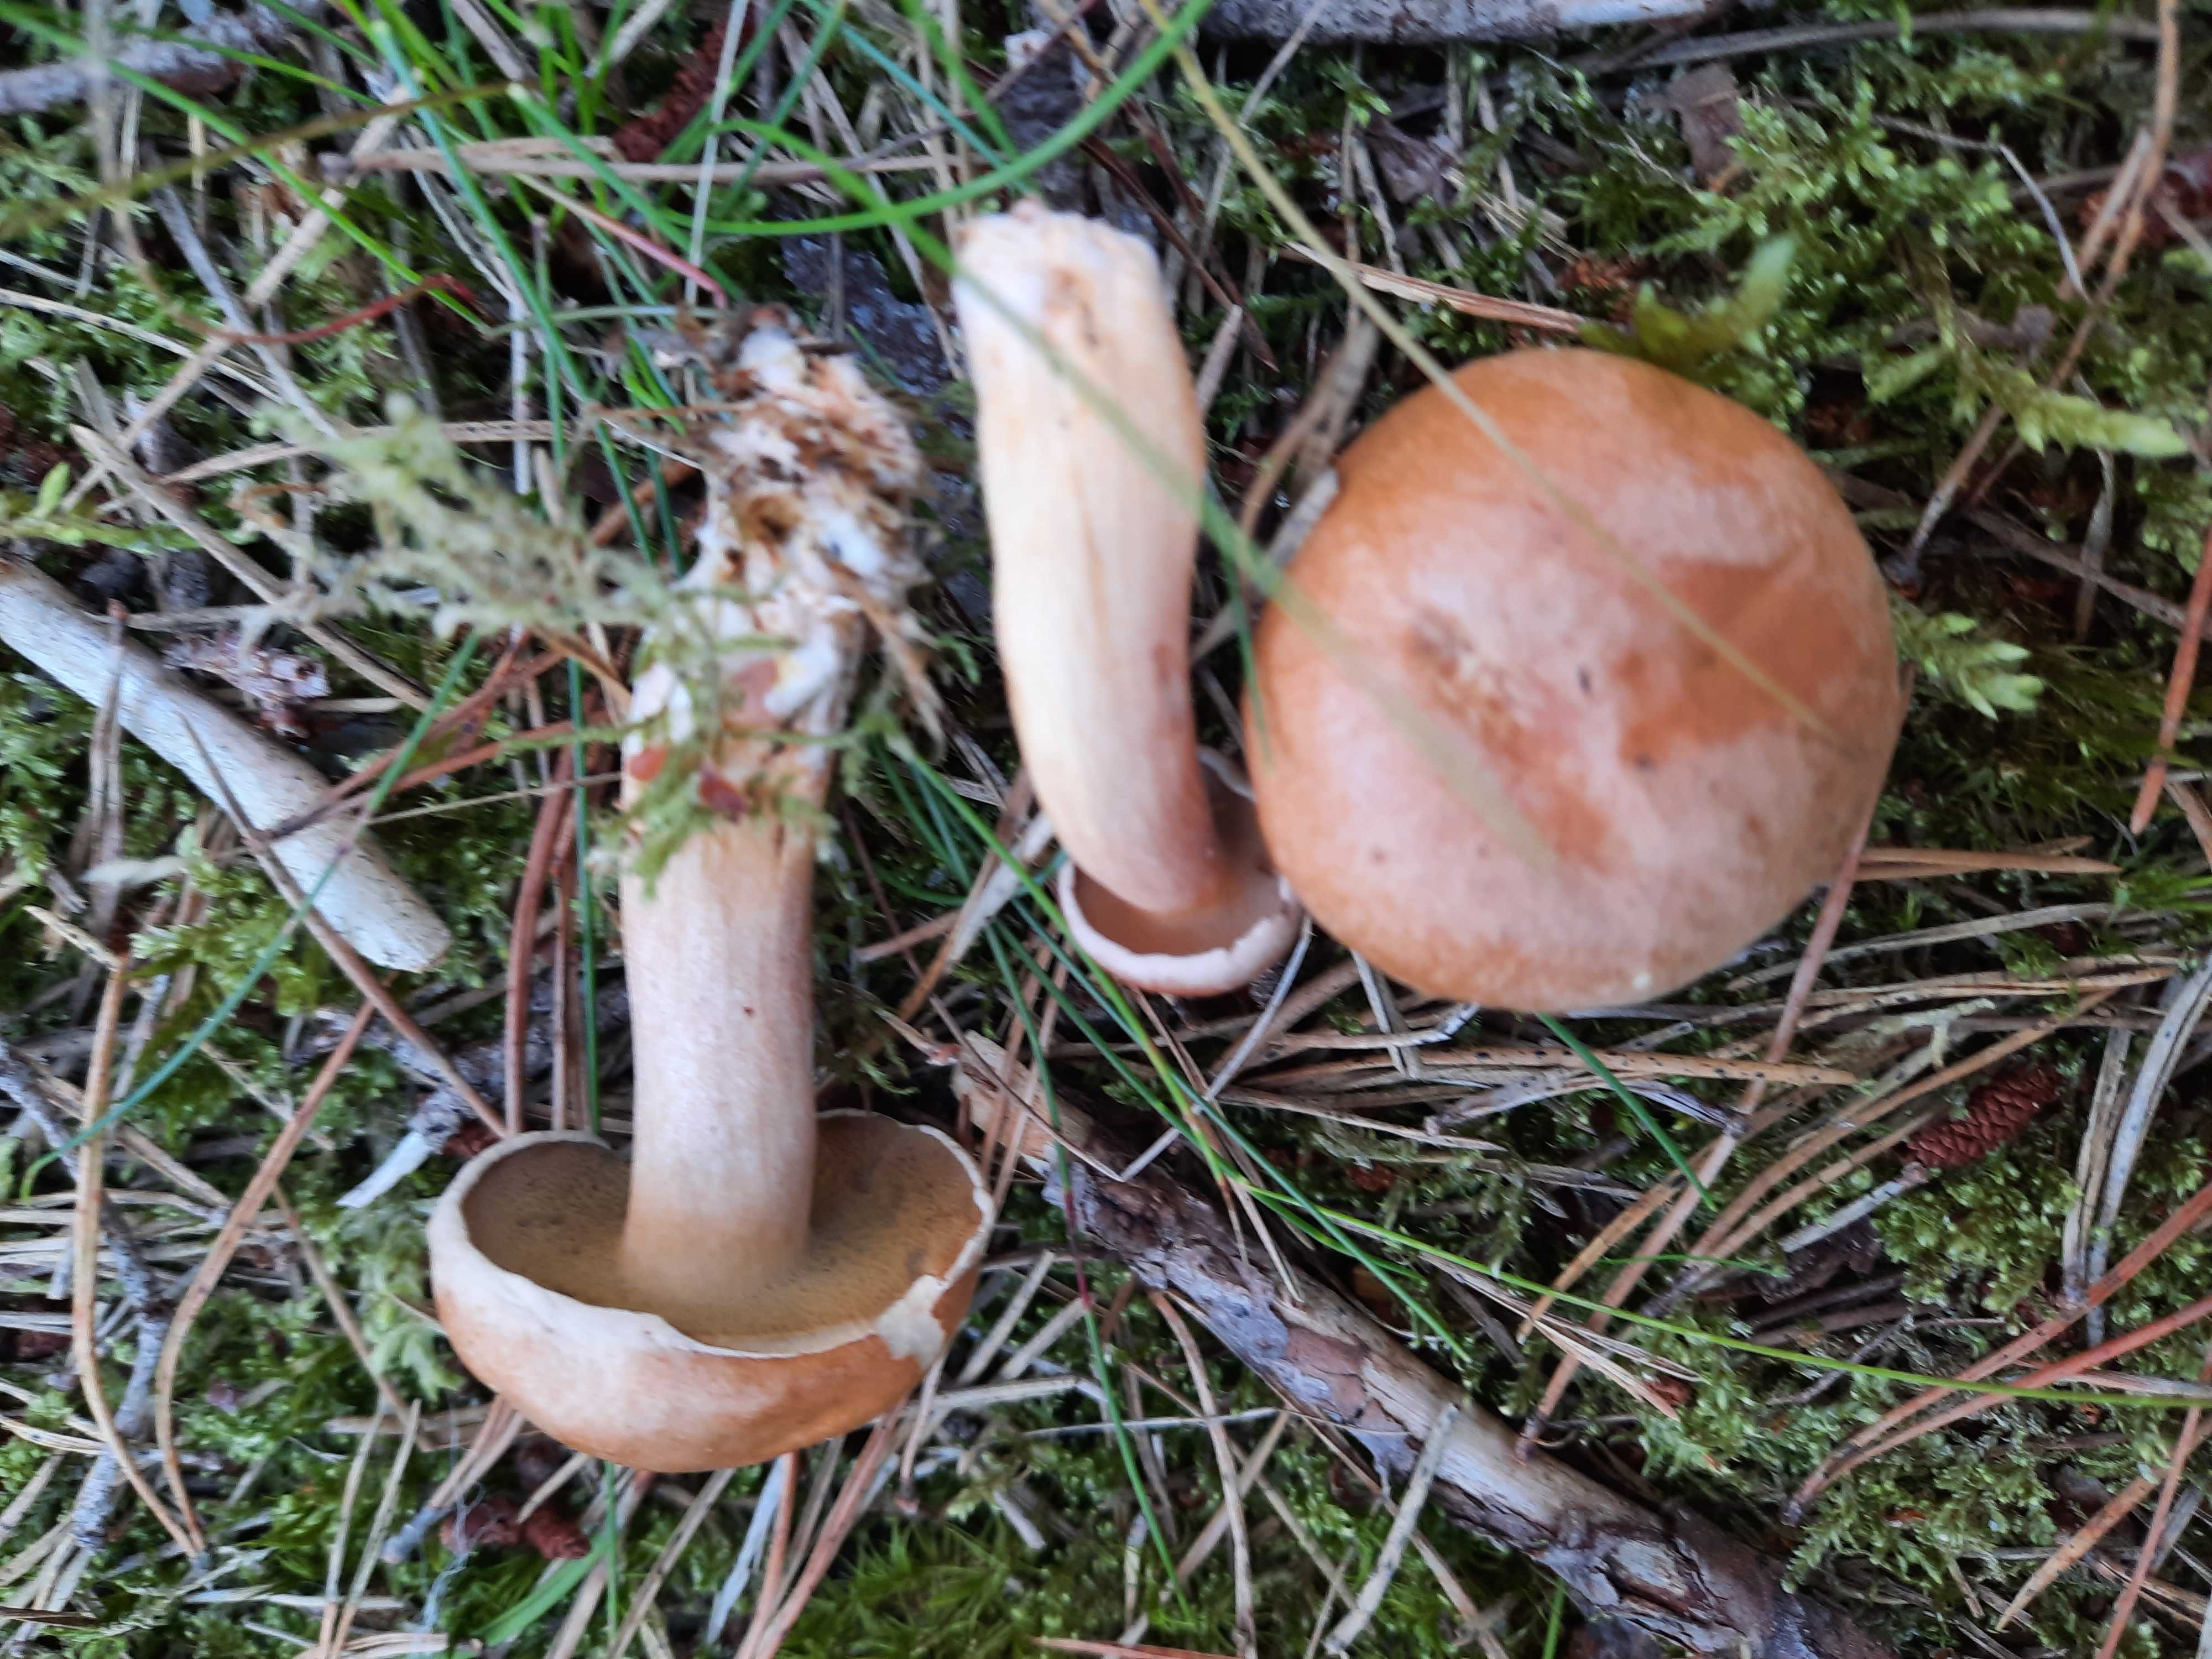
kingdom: Fungi
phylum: Basidiomycota
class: Agaricomycetes
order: Boletales
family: Suillaceae
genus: Suillus
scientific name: Suillus bovinus
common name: grovporet slimrørhat
